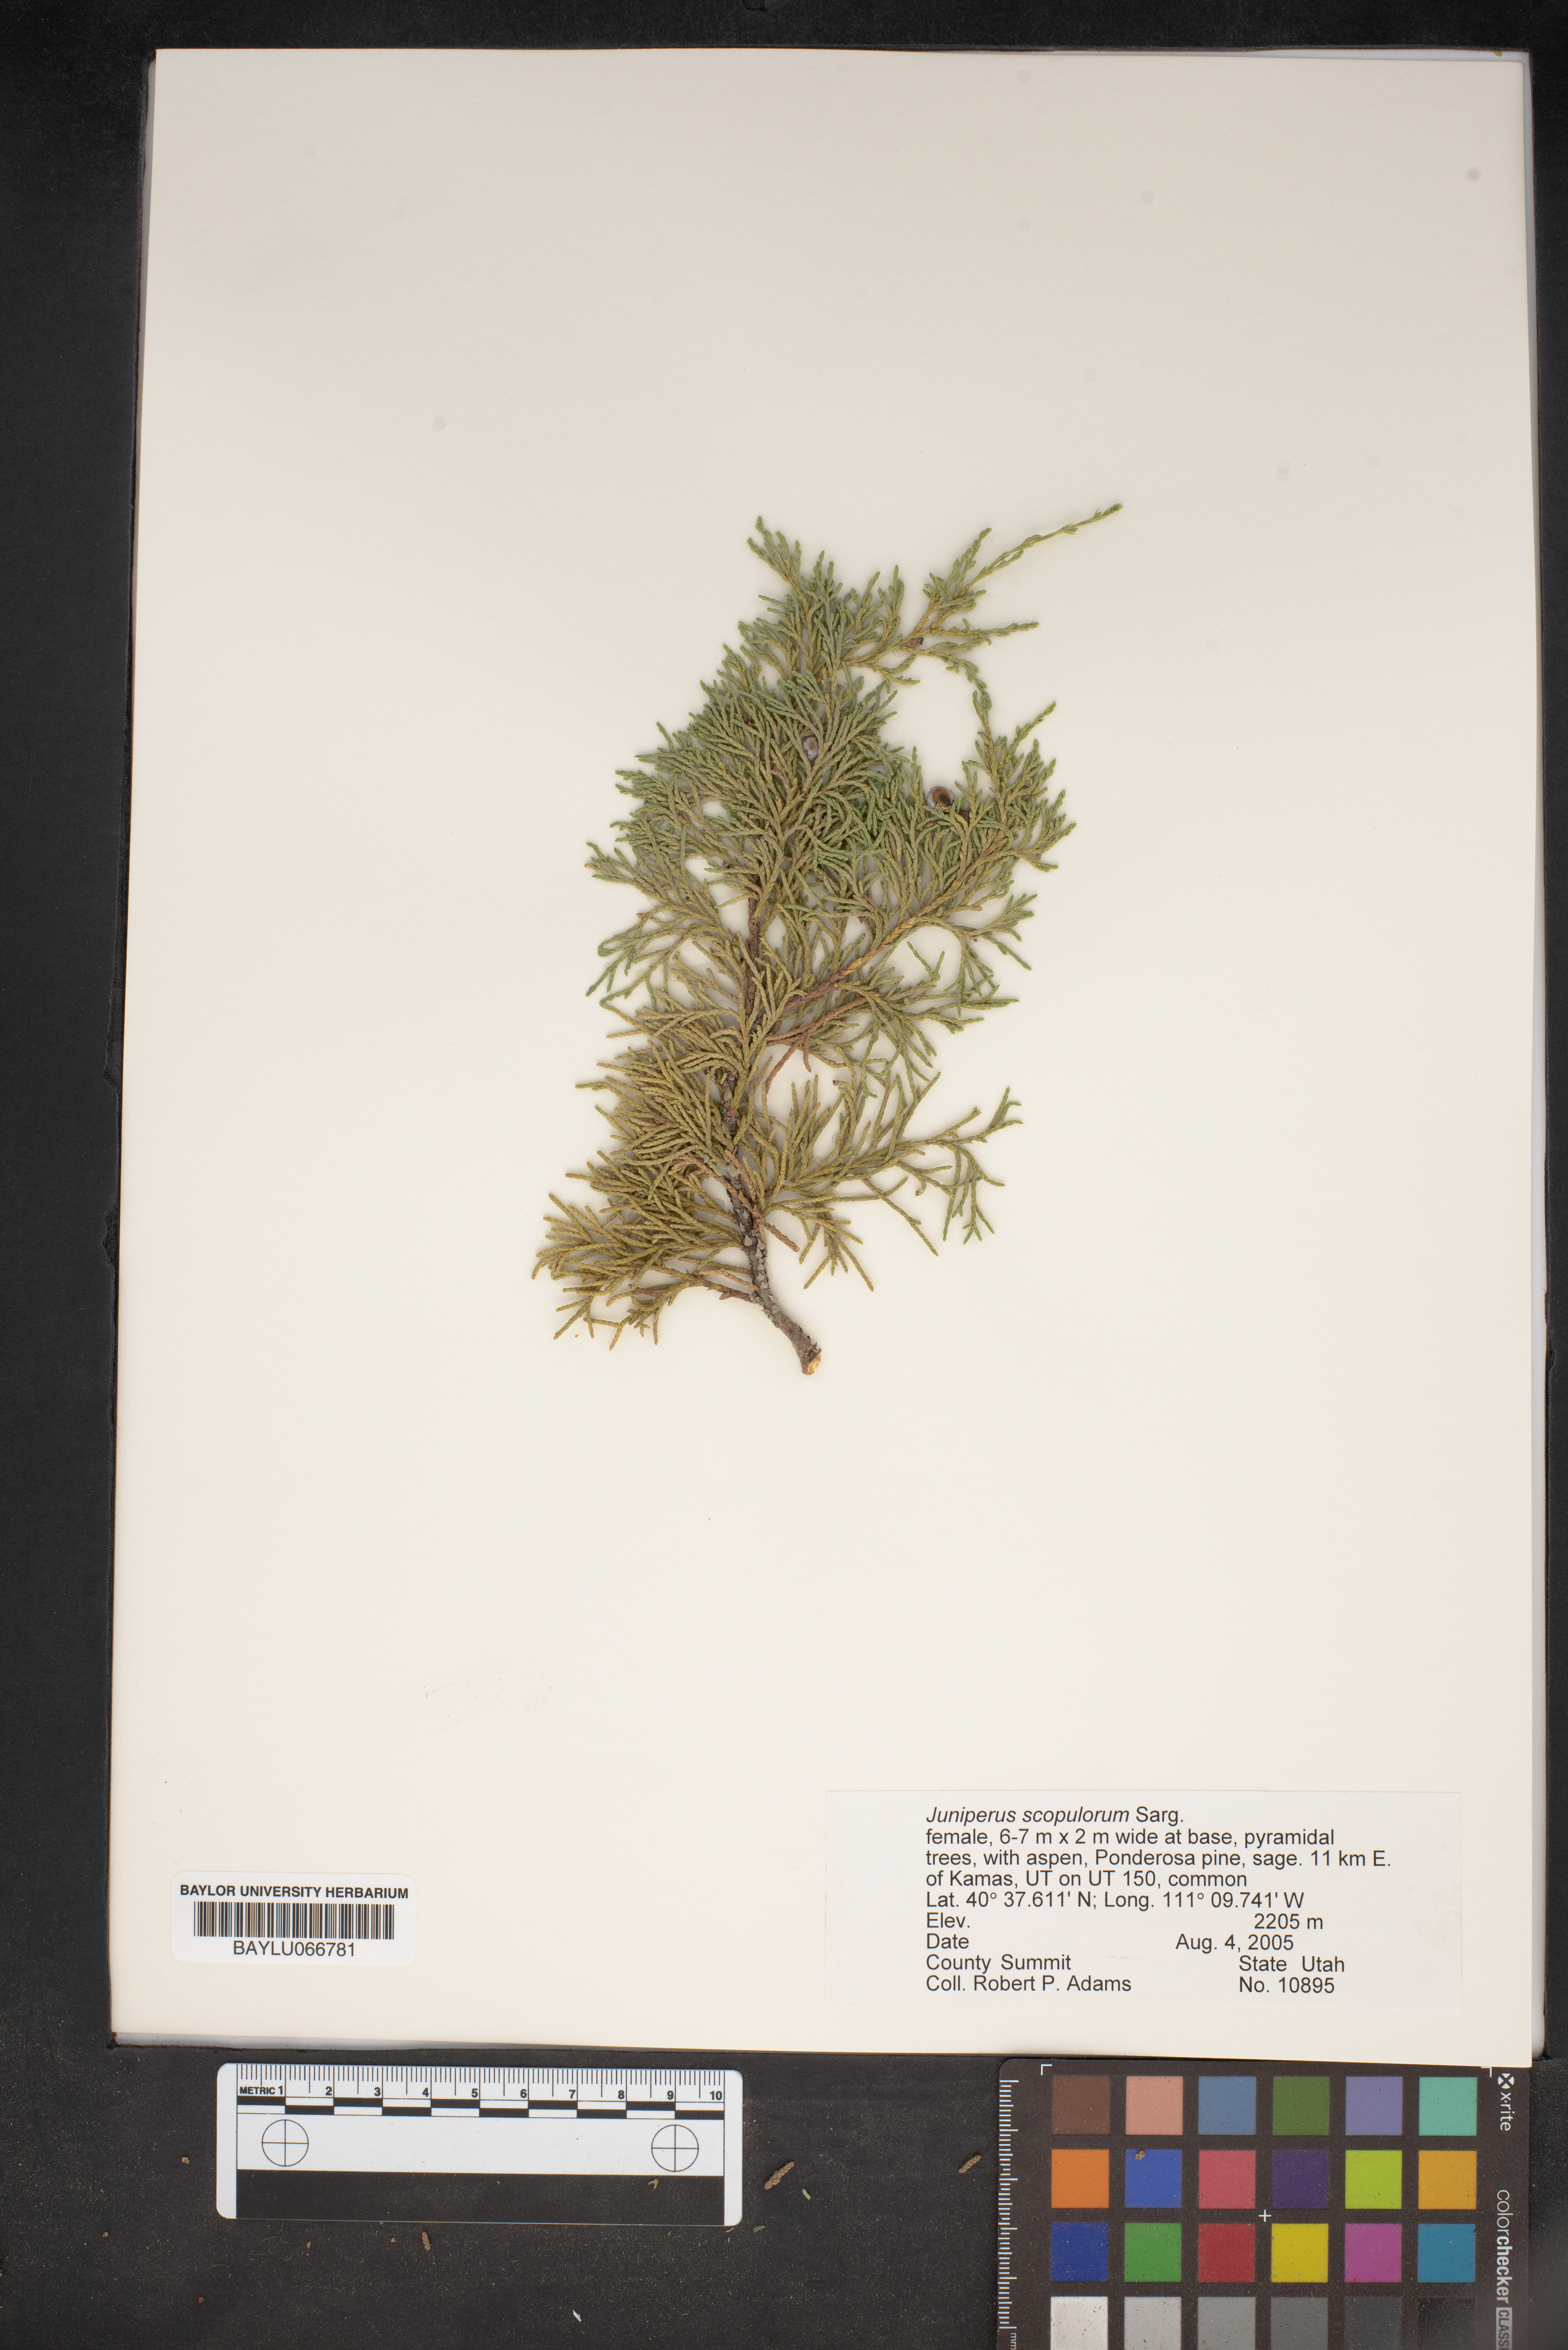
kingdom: Plantae
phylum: Tracheophyta
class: Pinopsida
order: Pinales
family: Cupressaceae
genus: Juniperus
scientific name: Juniperus scopulorum
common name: Rocky mountain juniper
